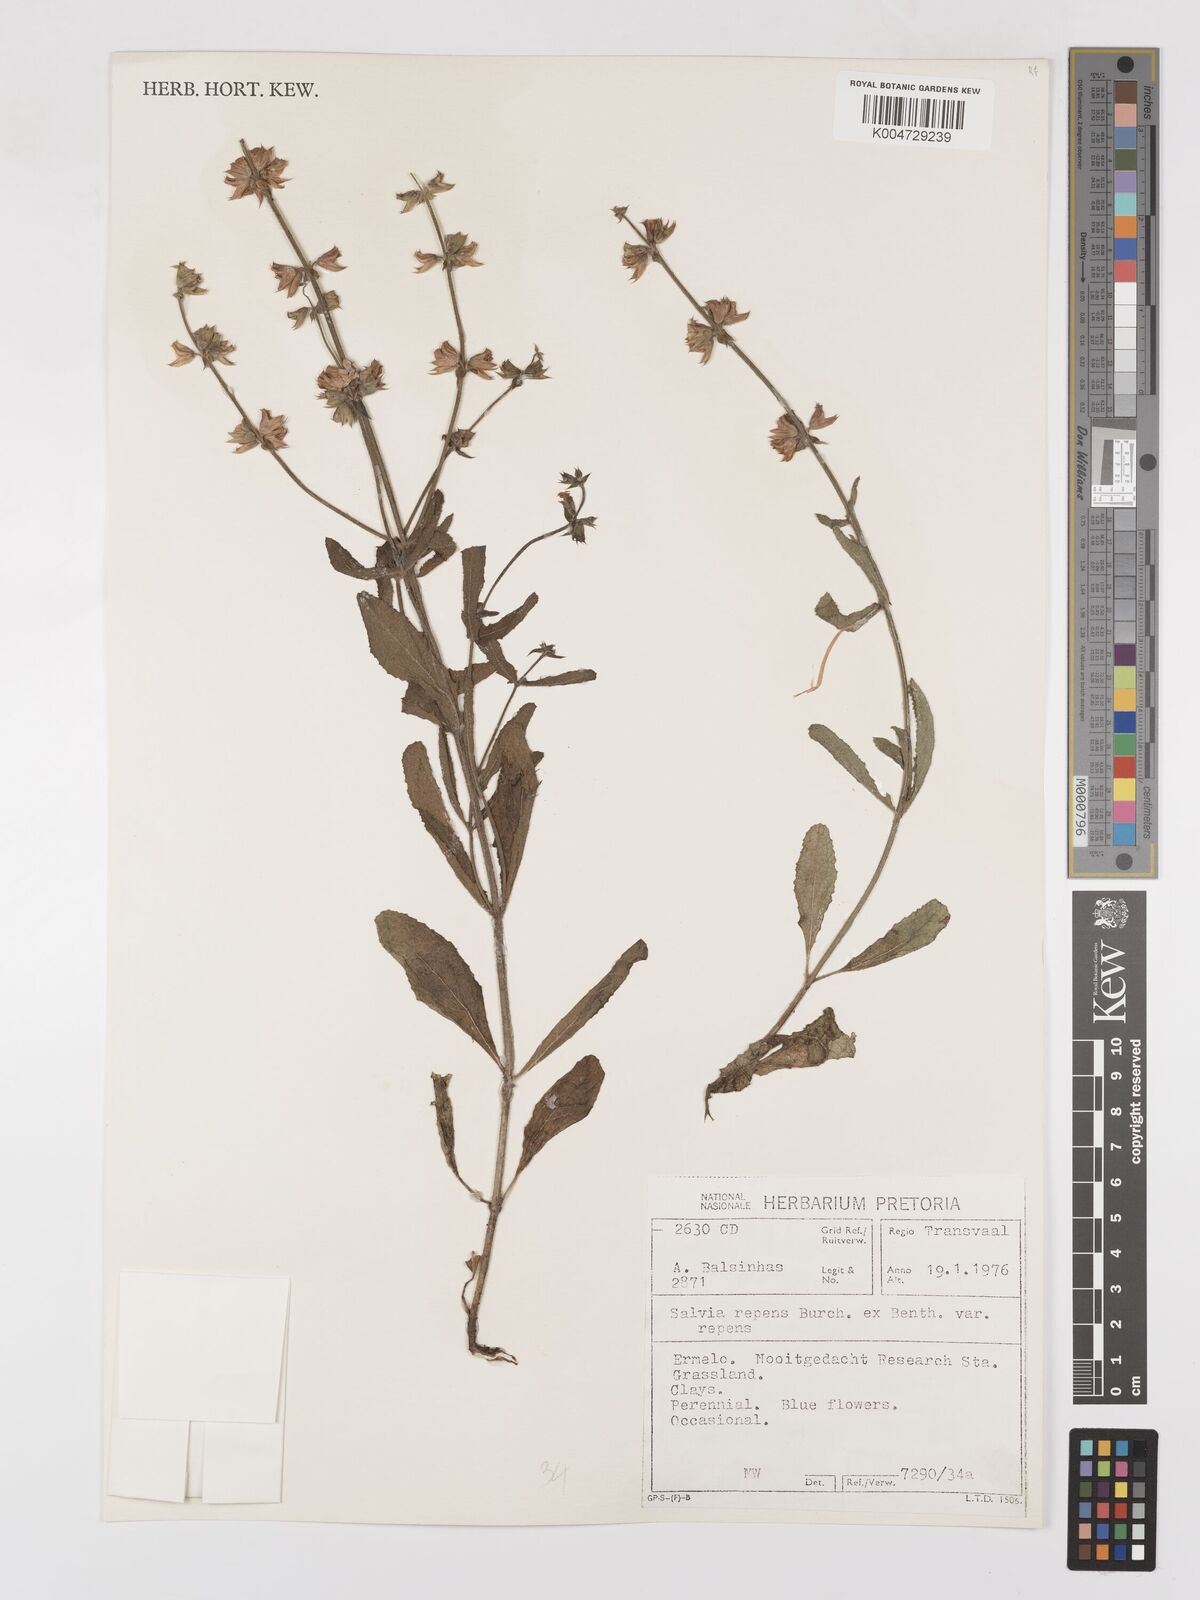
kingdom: Plantae
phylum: Tracheophyta
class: Magnoliopsida
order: Lamiales
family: Lamiaceae
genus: Salvia
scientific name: Salvia repens
